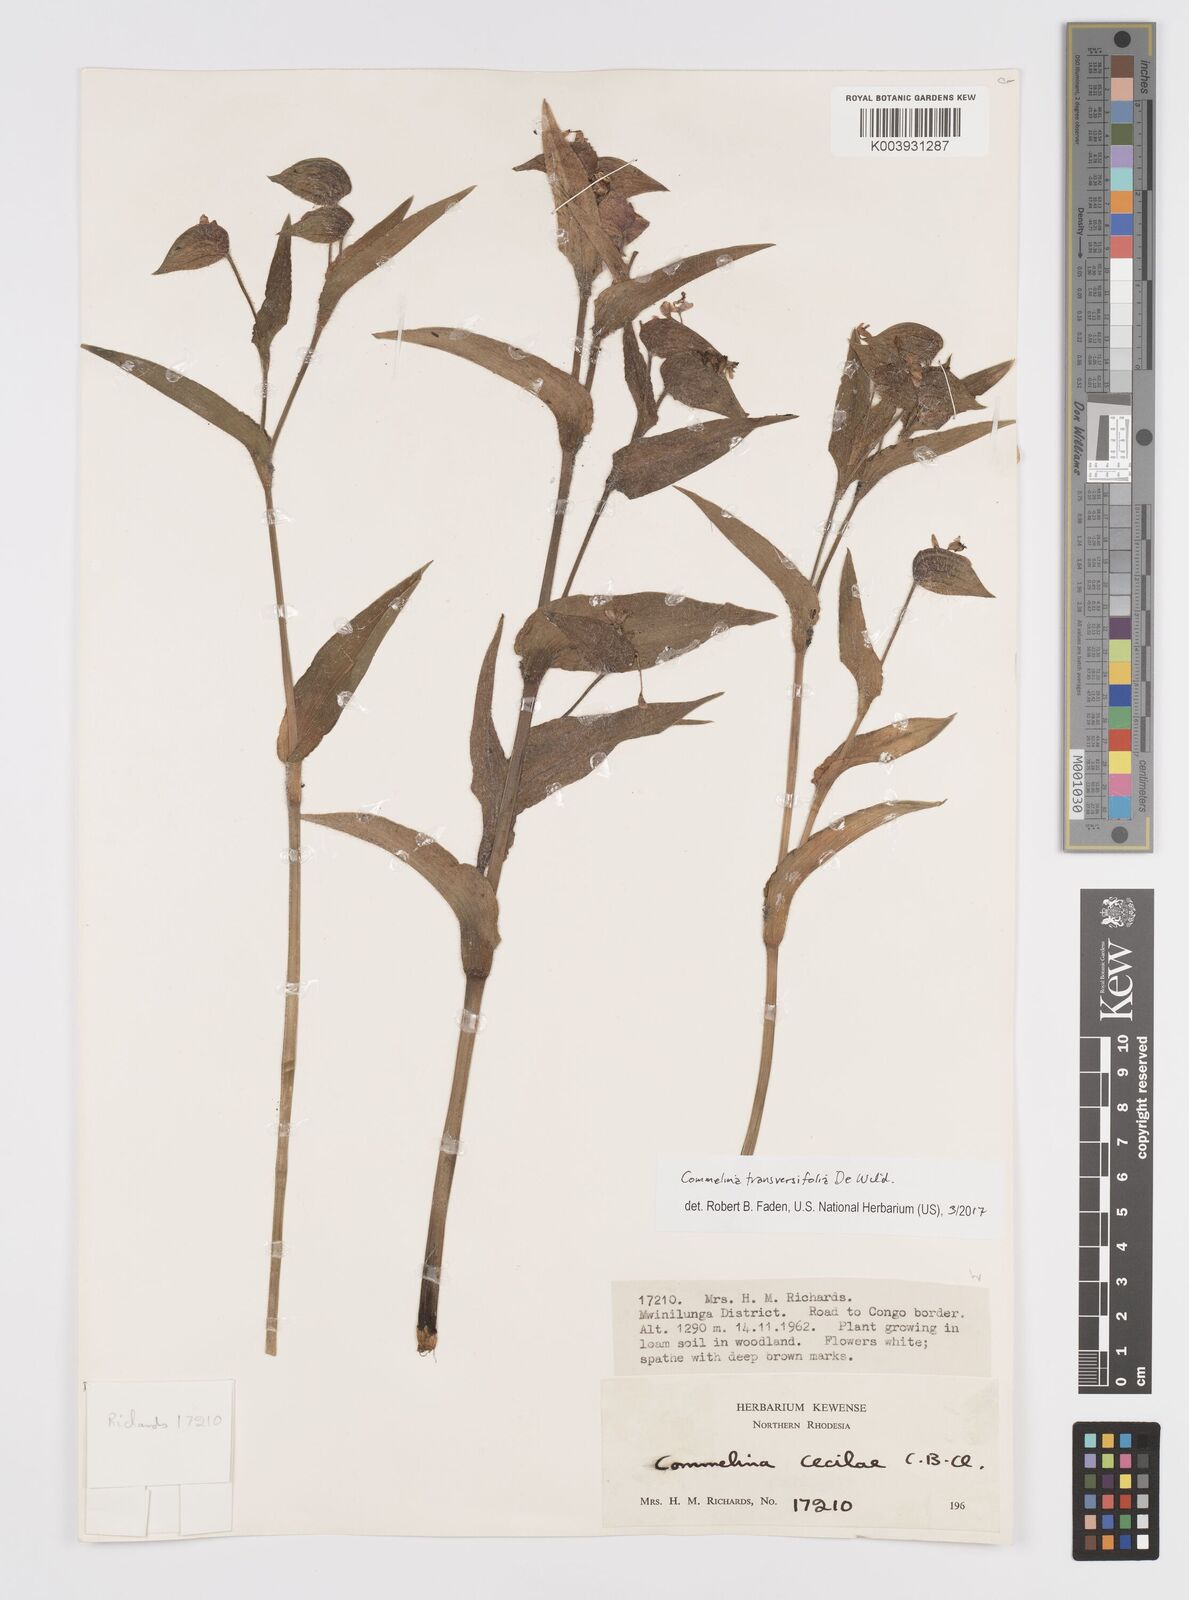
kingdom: Plantae
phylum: Tracheophyta
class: Liliopsida
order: Commelinales
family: Commelinaceae
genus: Commelina
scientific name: Commelina transversifolia
